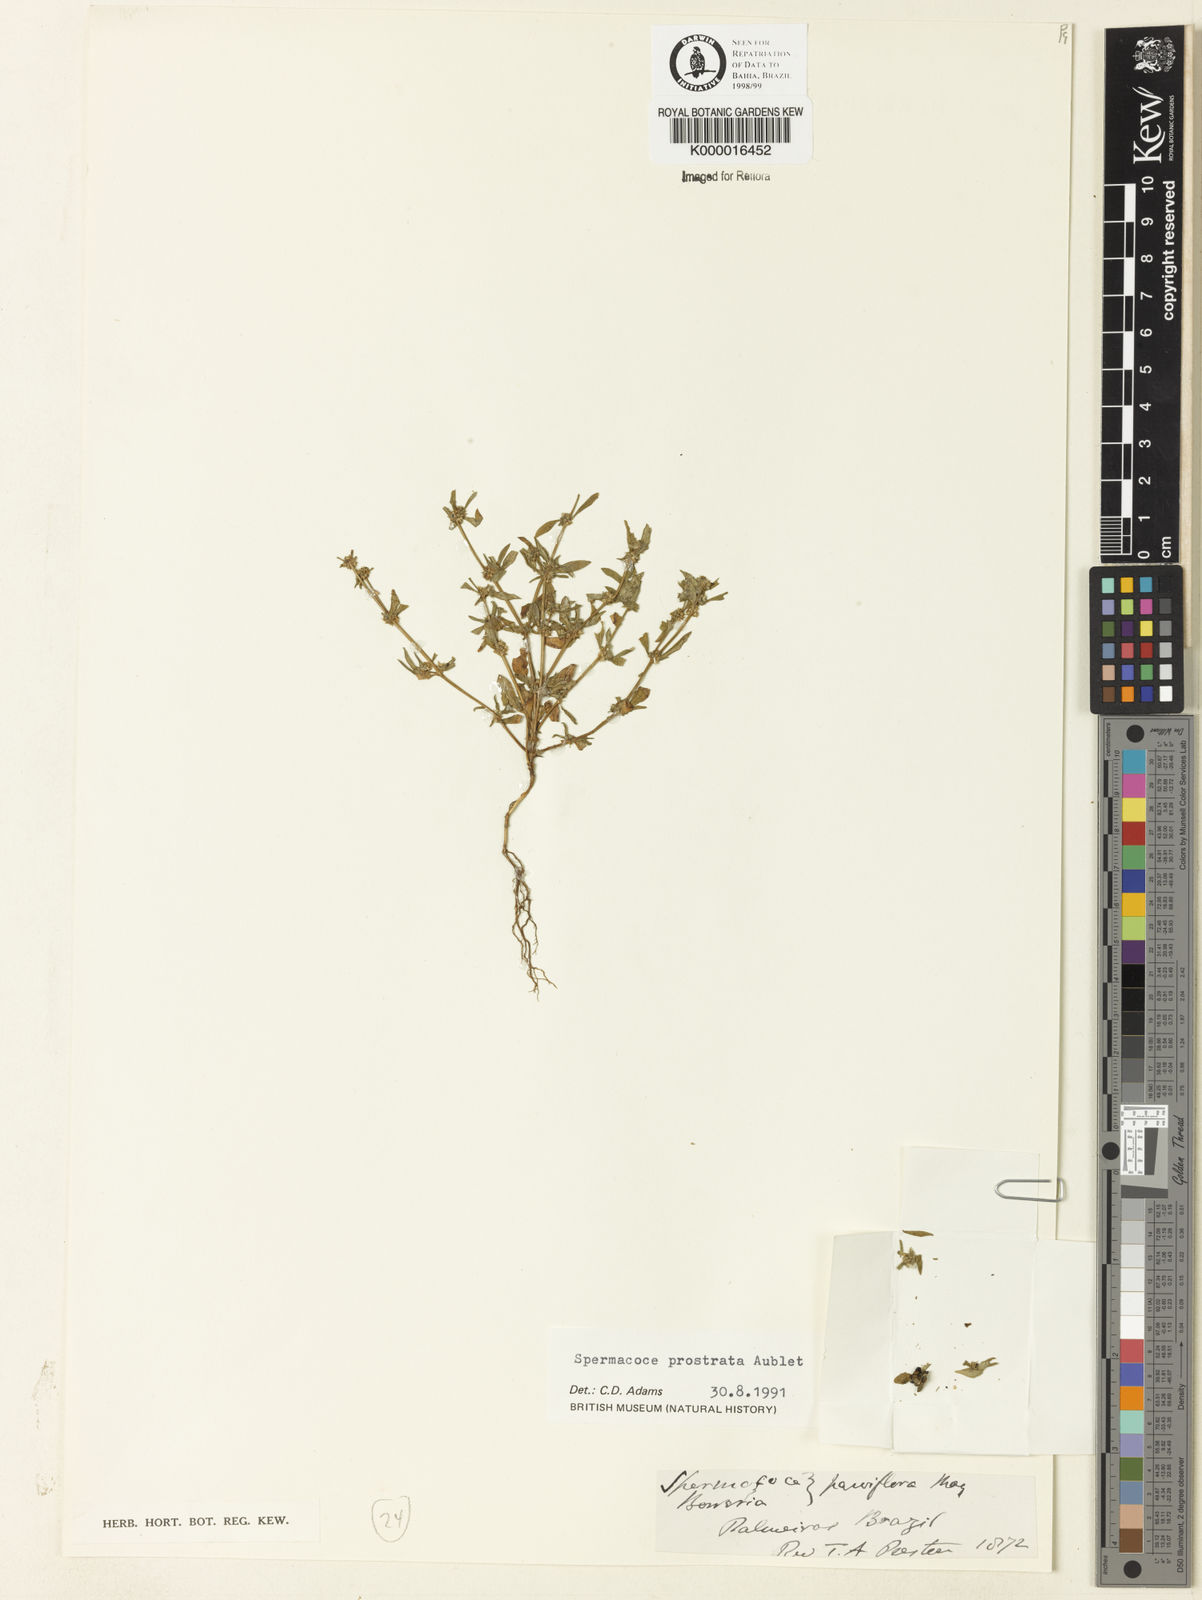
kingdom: Plantae
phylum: Tracheophyta
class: Magnoliopsida
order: Gentianales
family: Rubiaceae
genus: Spermacoce
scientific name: Spermacoce prostrata
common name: Prostrate false buttonweed
